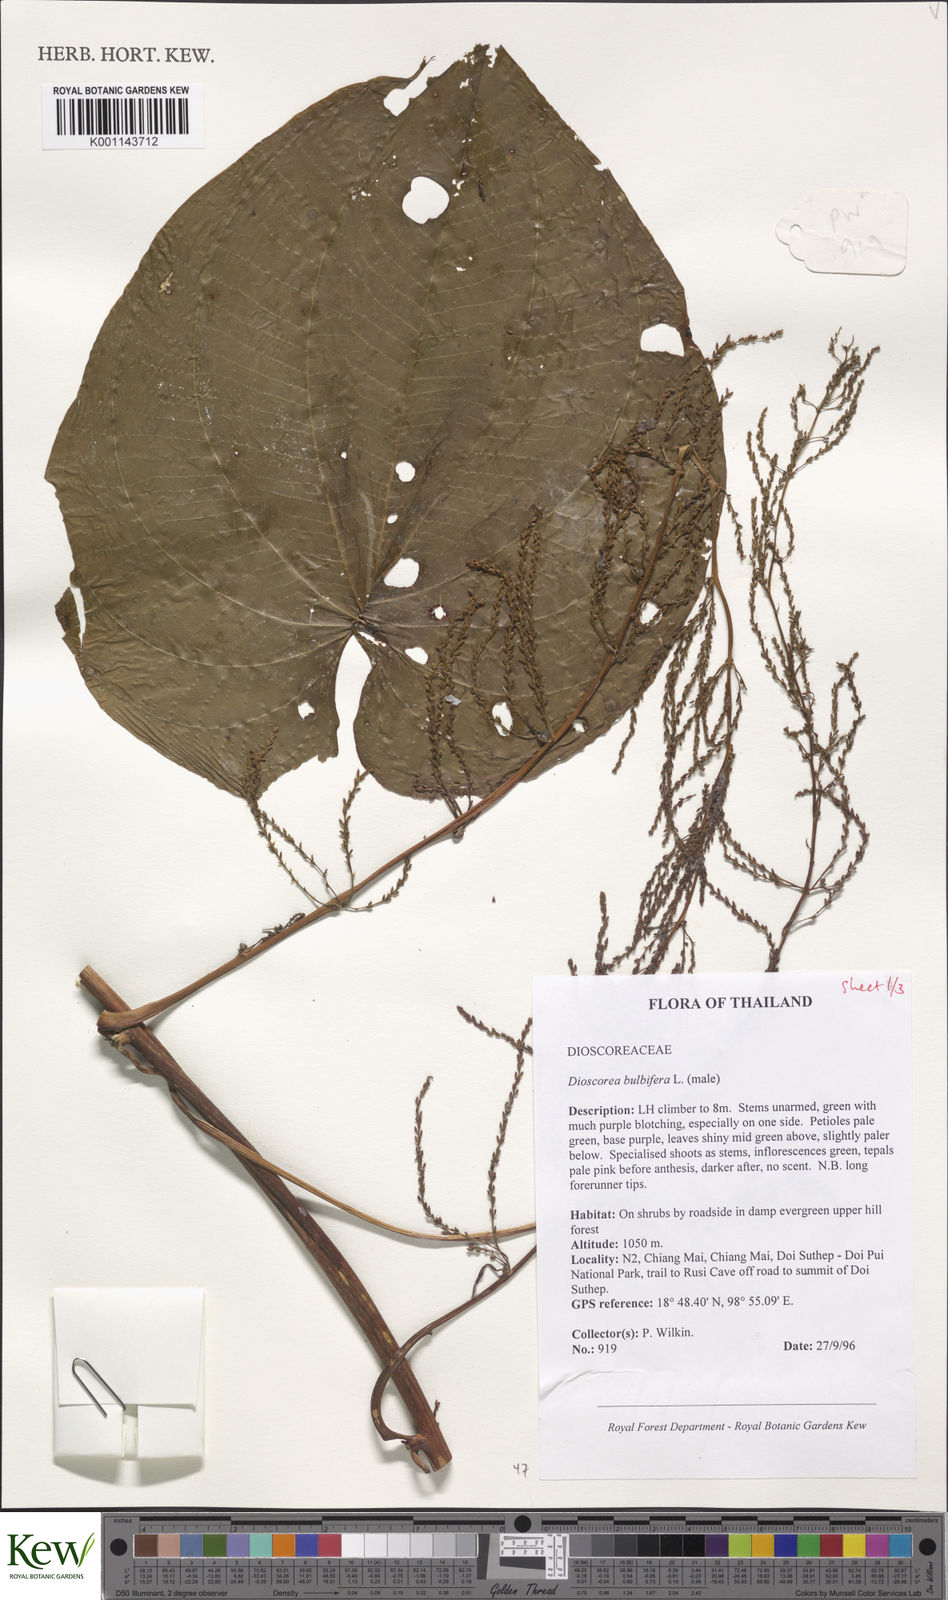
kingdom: Plantae
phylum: Tracheophyta
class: Liliopsida
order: Dioscoreales
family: Dioscoreaceae
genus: Dioscorea
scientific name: Dioscorea bulbifera
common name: Air yam
